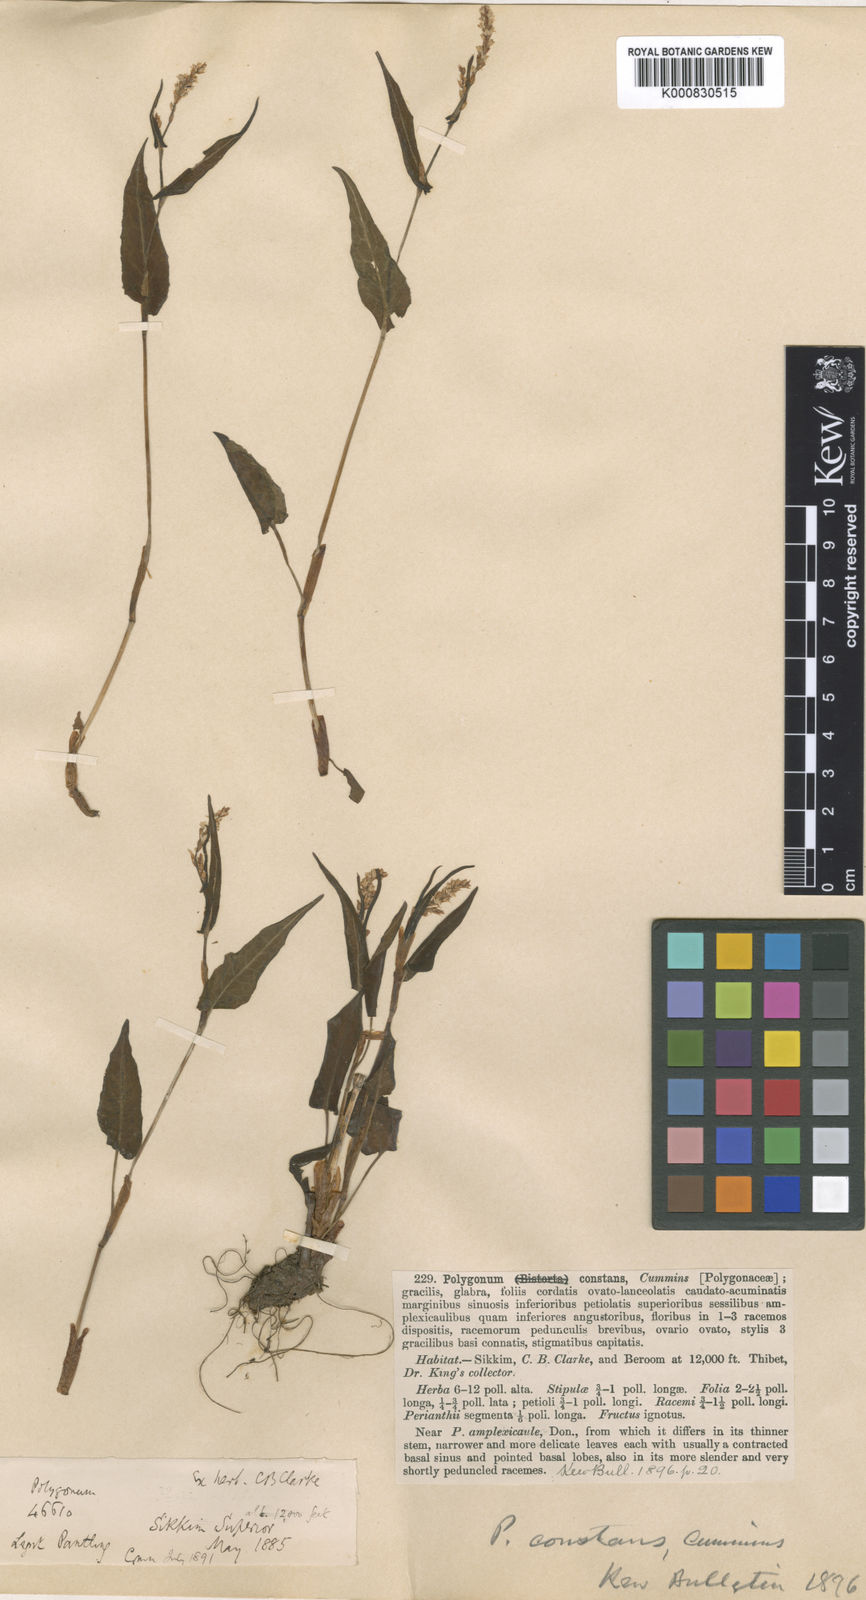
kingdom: Plantae
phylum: Tracheophyta
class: Magnoliopsida
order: Caryophyllales
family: Polygonaceae
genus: Bistorta
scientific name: Bistorta suffulta
